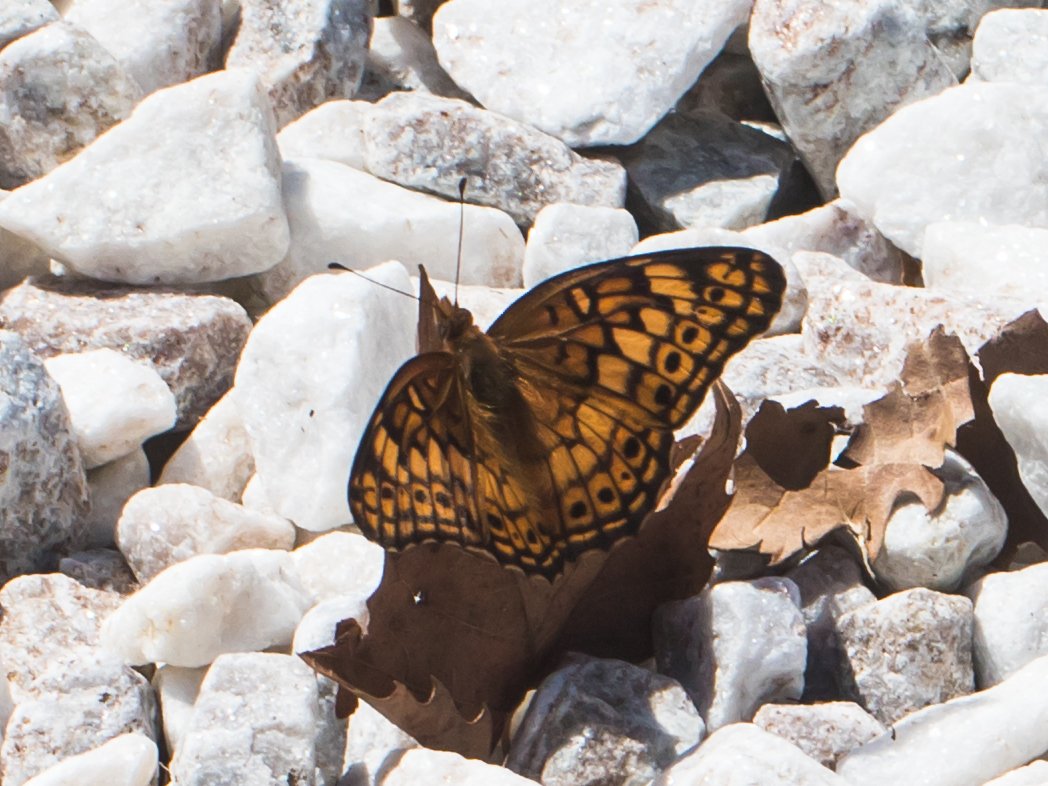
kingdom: Animalia
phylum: Arthropoda
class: Insecta
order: Lepidoptera
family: Nymphalidae
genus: Euptoieta
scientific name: Euptoieta claudia
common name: Variegated Fritillary
